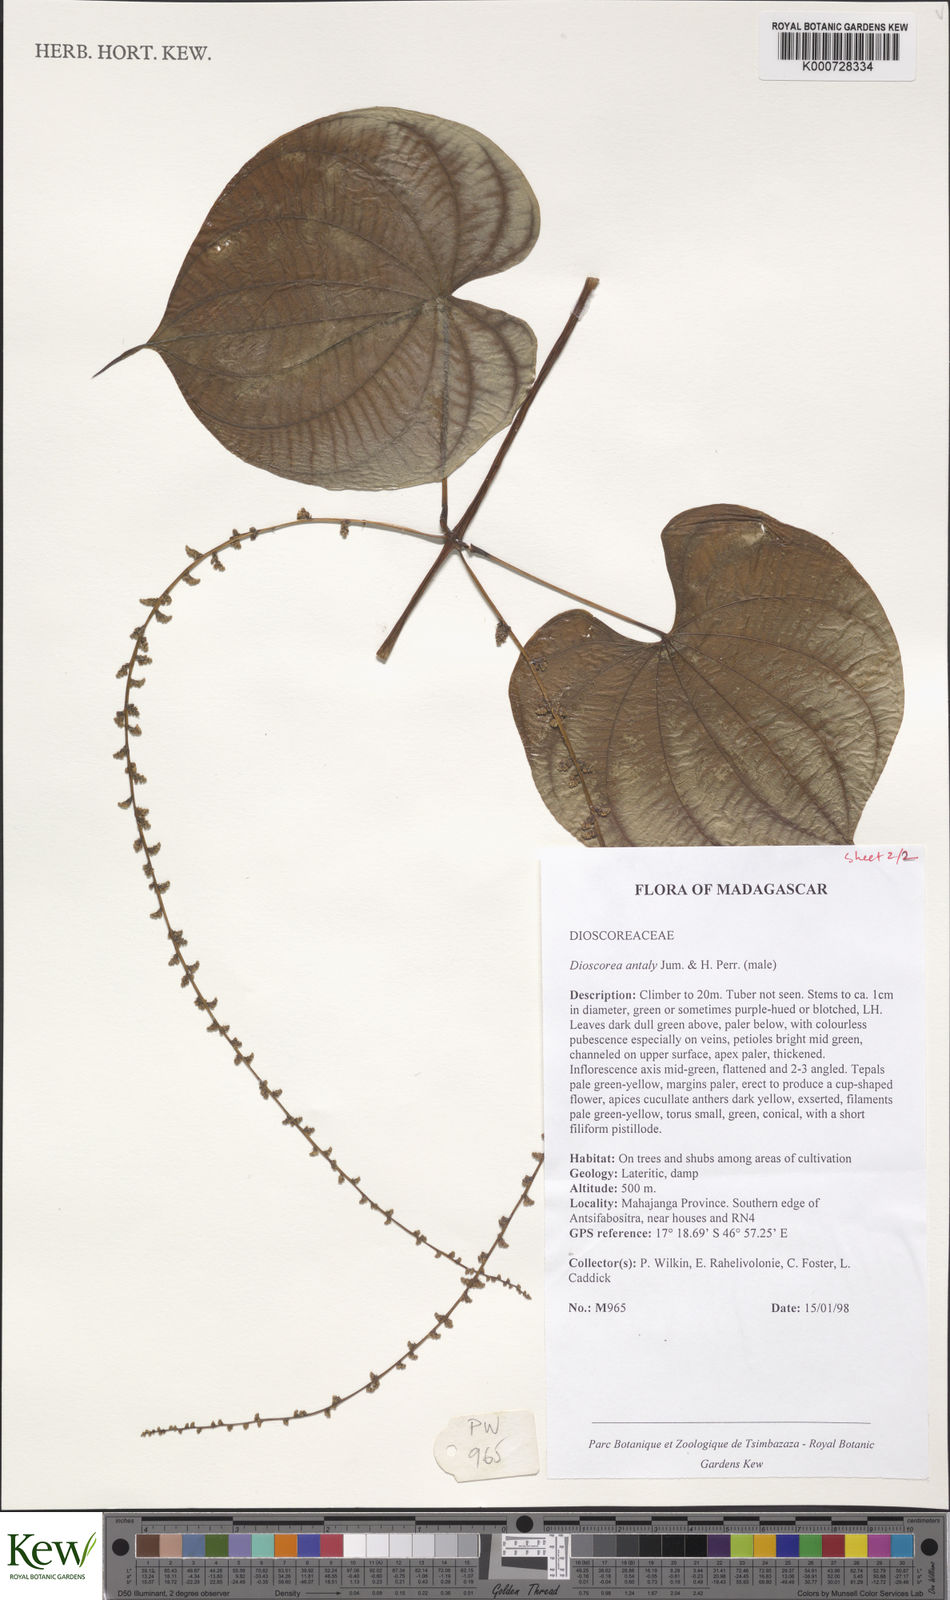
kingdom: Plantae
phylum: Tracheophyta
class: Liliopsida
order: Dioscoreales
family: Dioscoreaceae
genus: Dioscorea
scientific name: Dioscorea antaly
